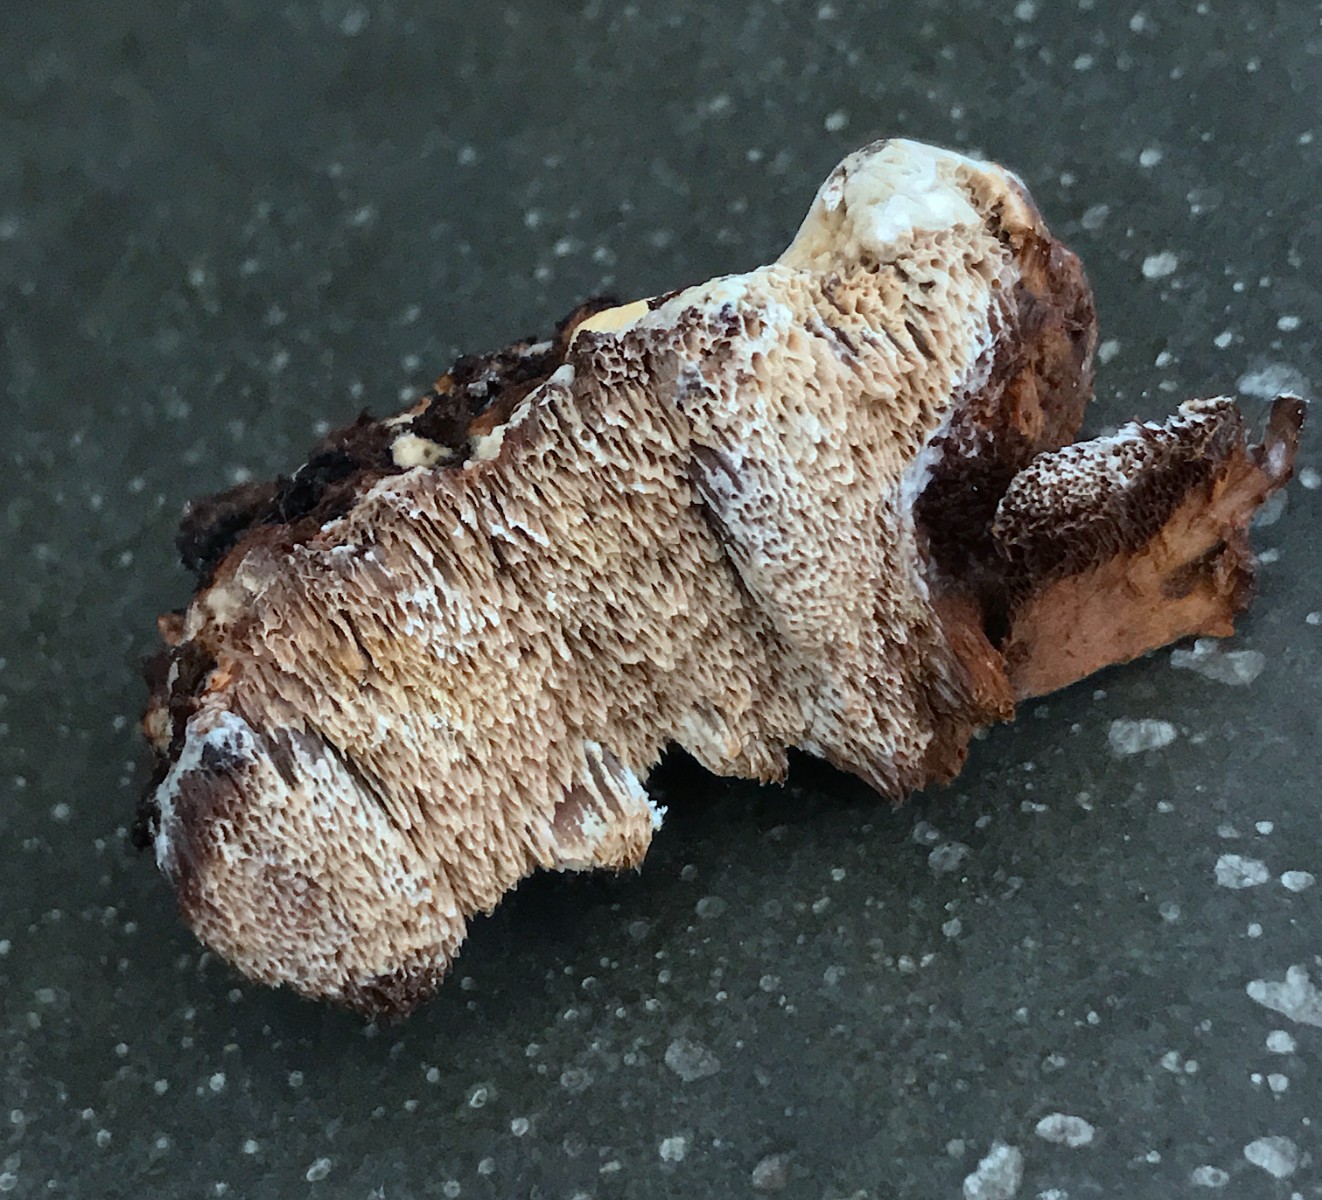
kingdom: Fungi
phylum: Basidiomycota
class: Agaricomycetes
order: Hymenochaetales
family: Hymenochaetaceae
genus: Mensularia
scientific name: Mensularia nodulosa
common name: bøge-spejlporesvamp
